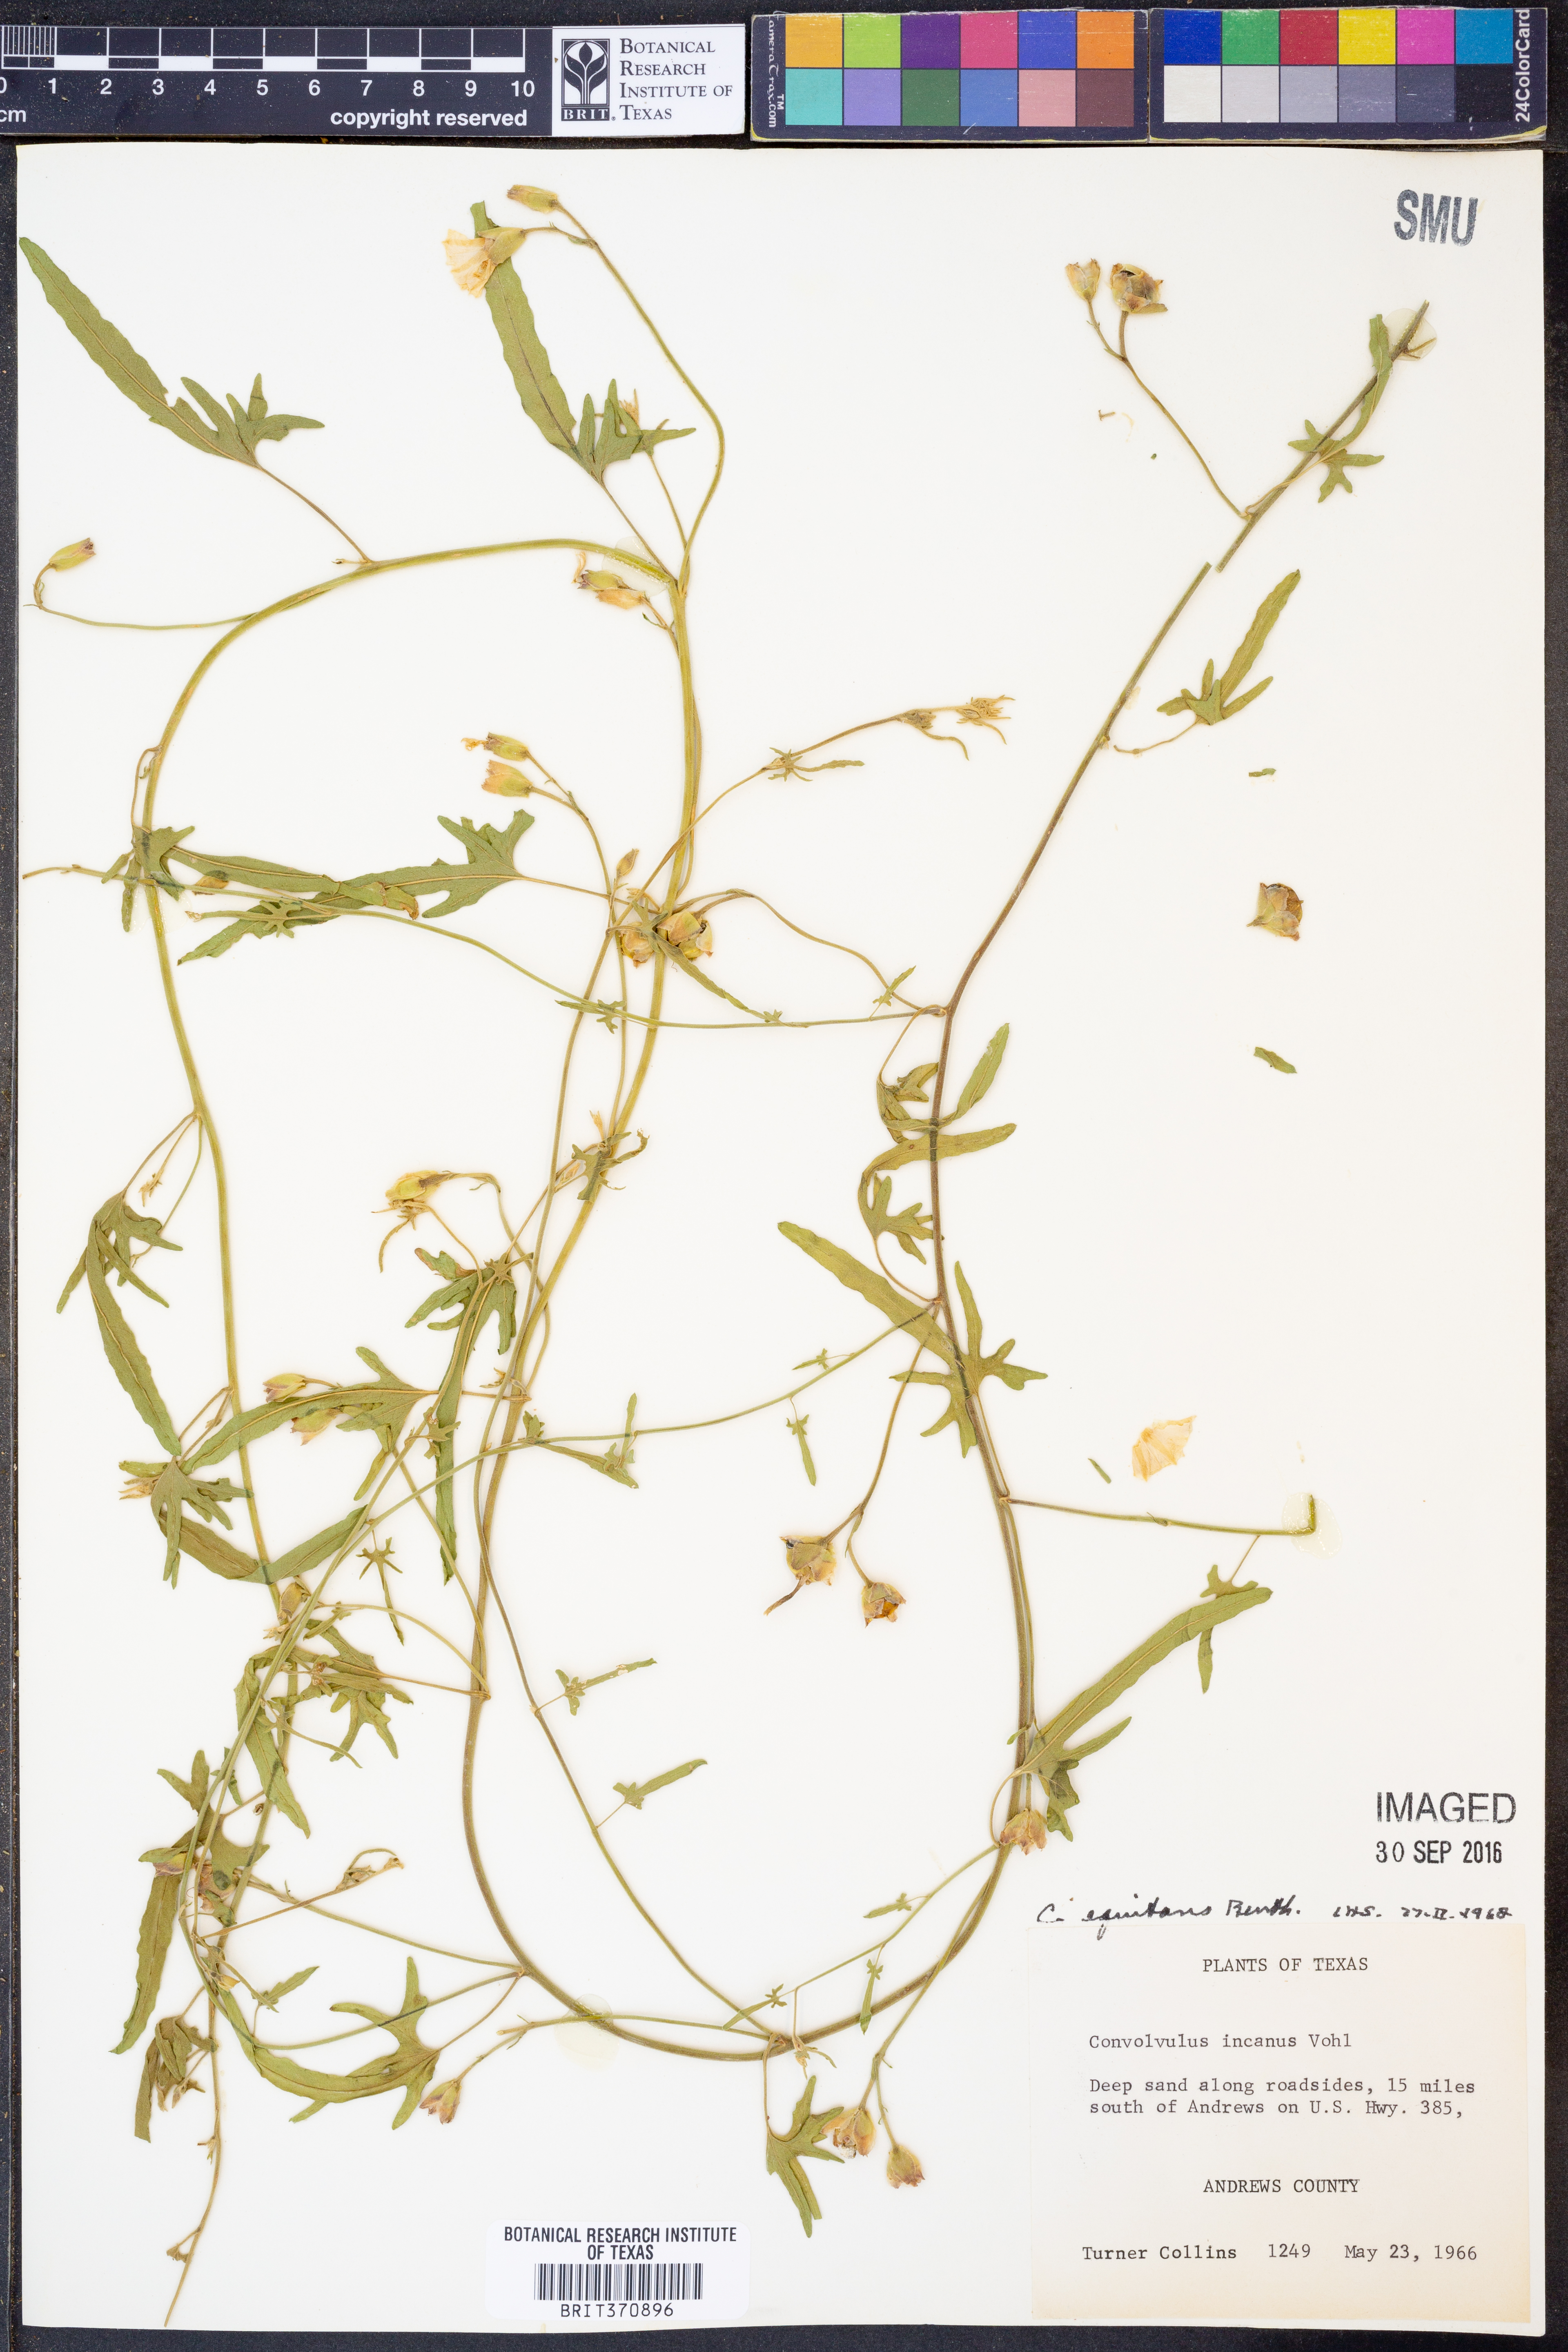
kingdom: Plantae
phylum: Tracheophyta
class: Magnoliopsida
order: Solanales
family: Convolvulaceae
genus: Convolvulus
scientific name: Convolvulus equitans
